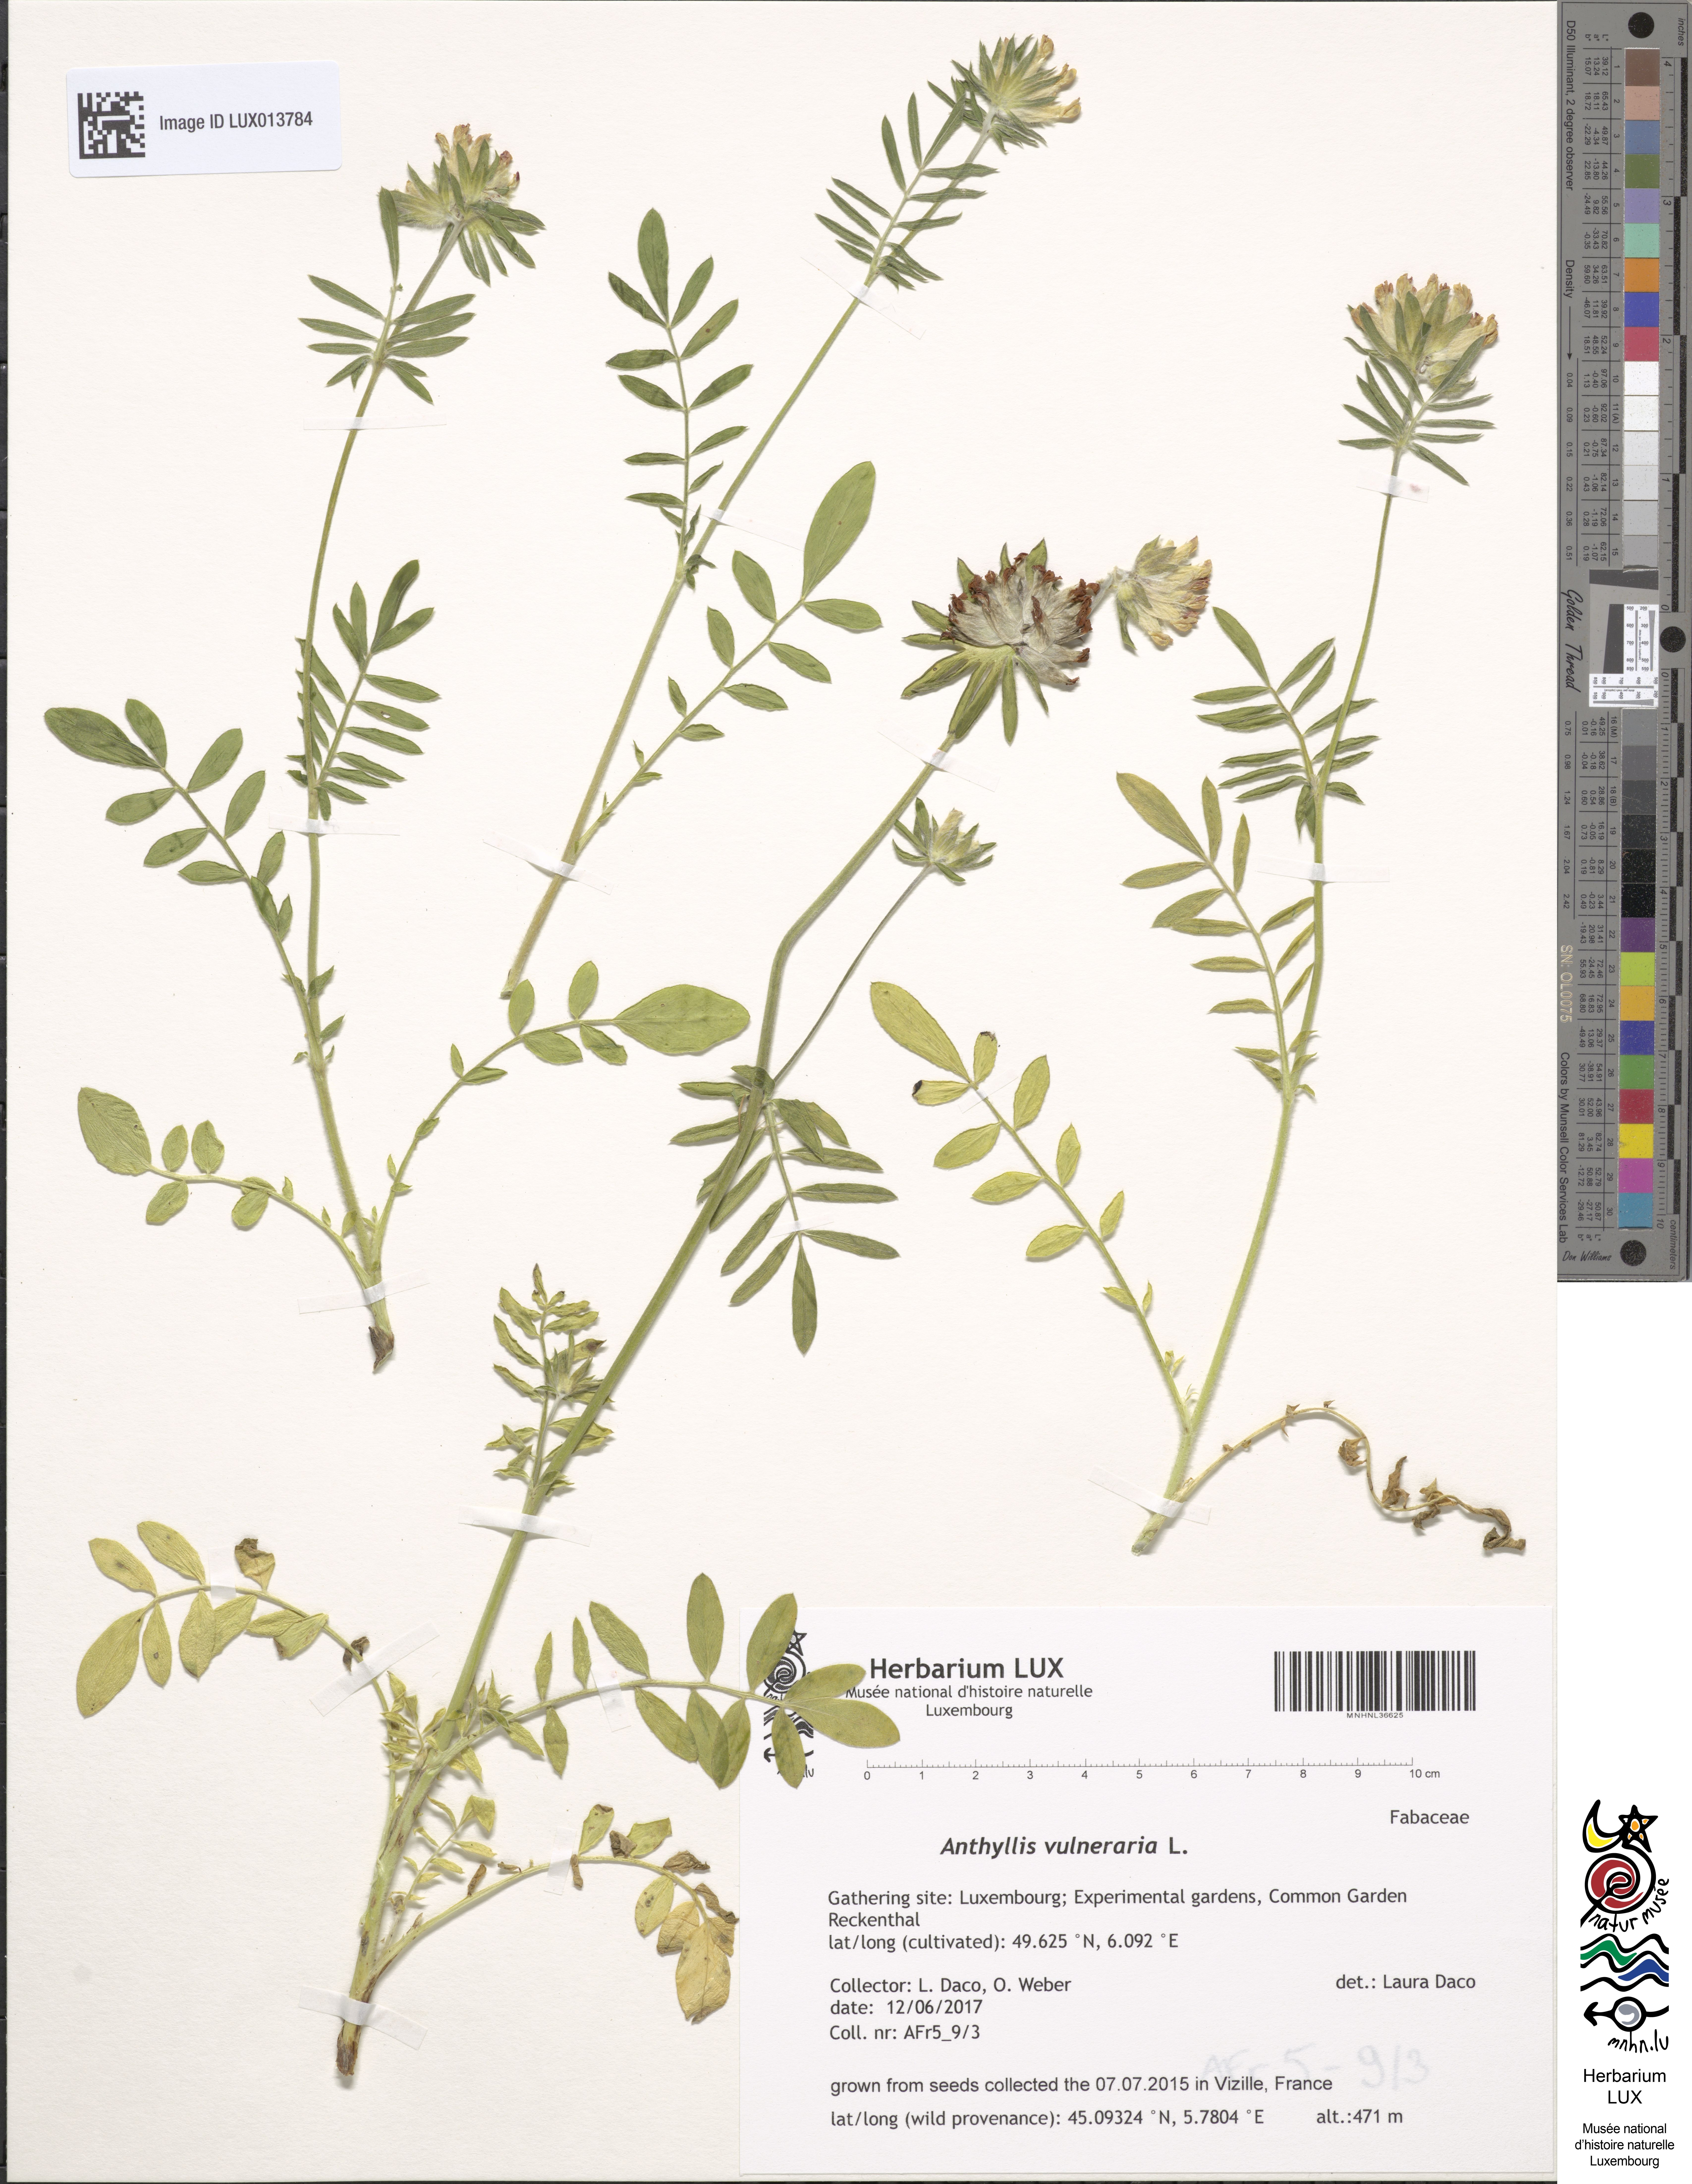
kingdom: Plantae
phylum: Tracheophyta
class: Magnoliopsida
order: Fabales
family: Fabaceae
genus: Anthyllis
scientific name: Anthyllis vulneraria
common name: Kidney vetch
